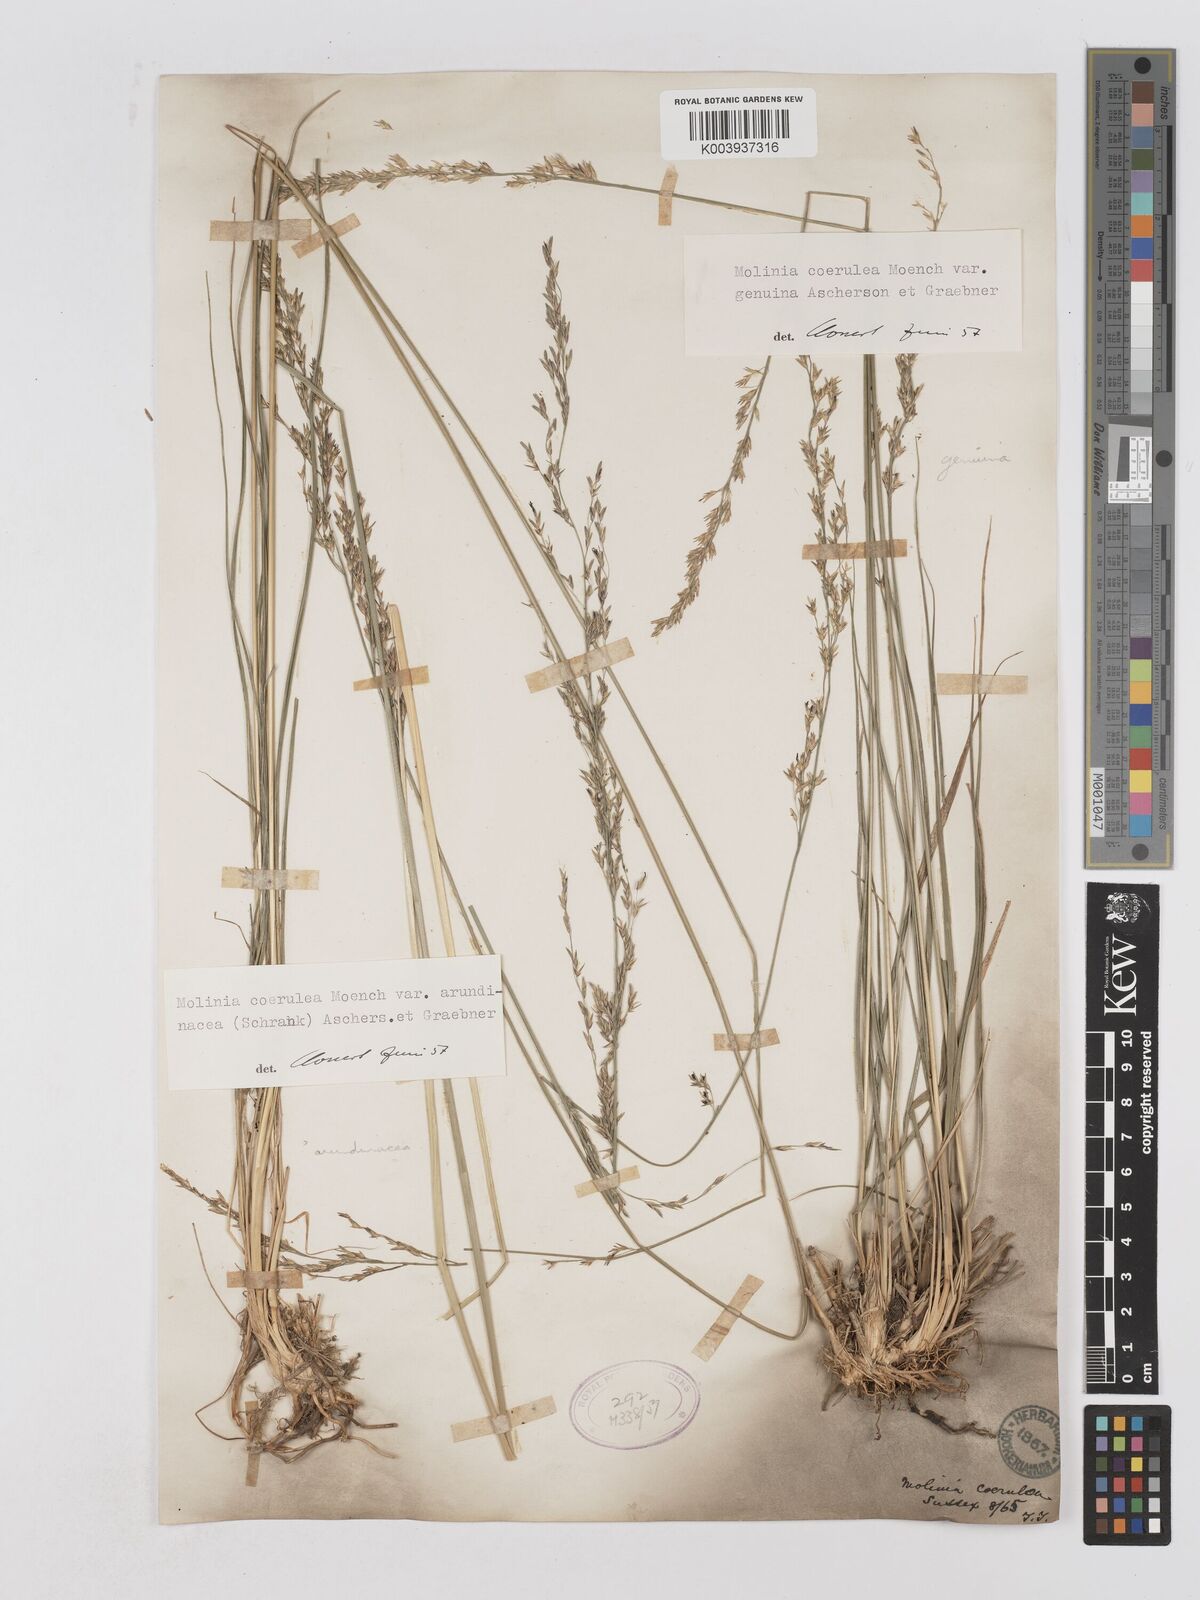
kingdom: Plantae
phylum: Tracheophyta
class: Liliopsida
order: Poales
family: Poaceae
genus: Molinia
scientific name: Molinia caerulea
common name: Purple moor-grass
